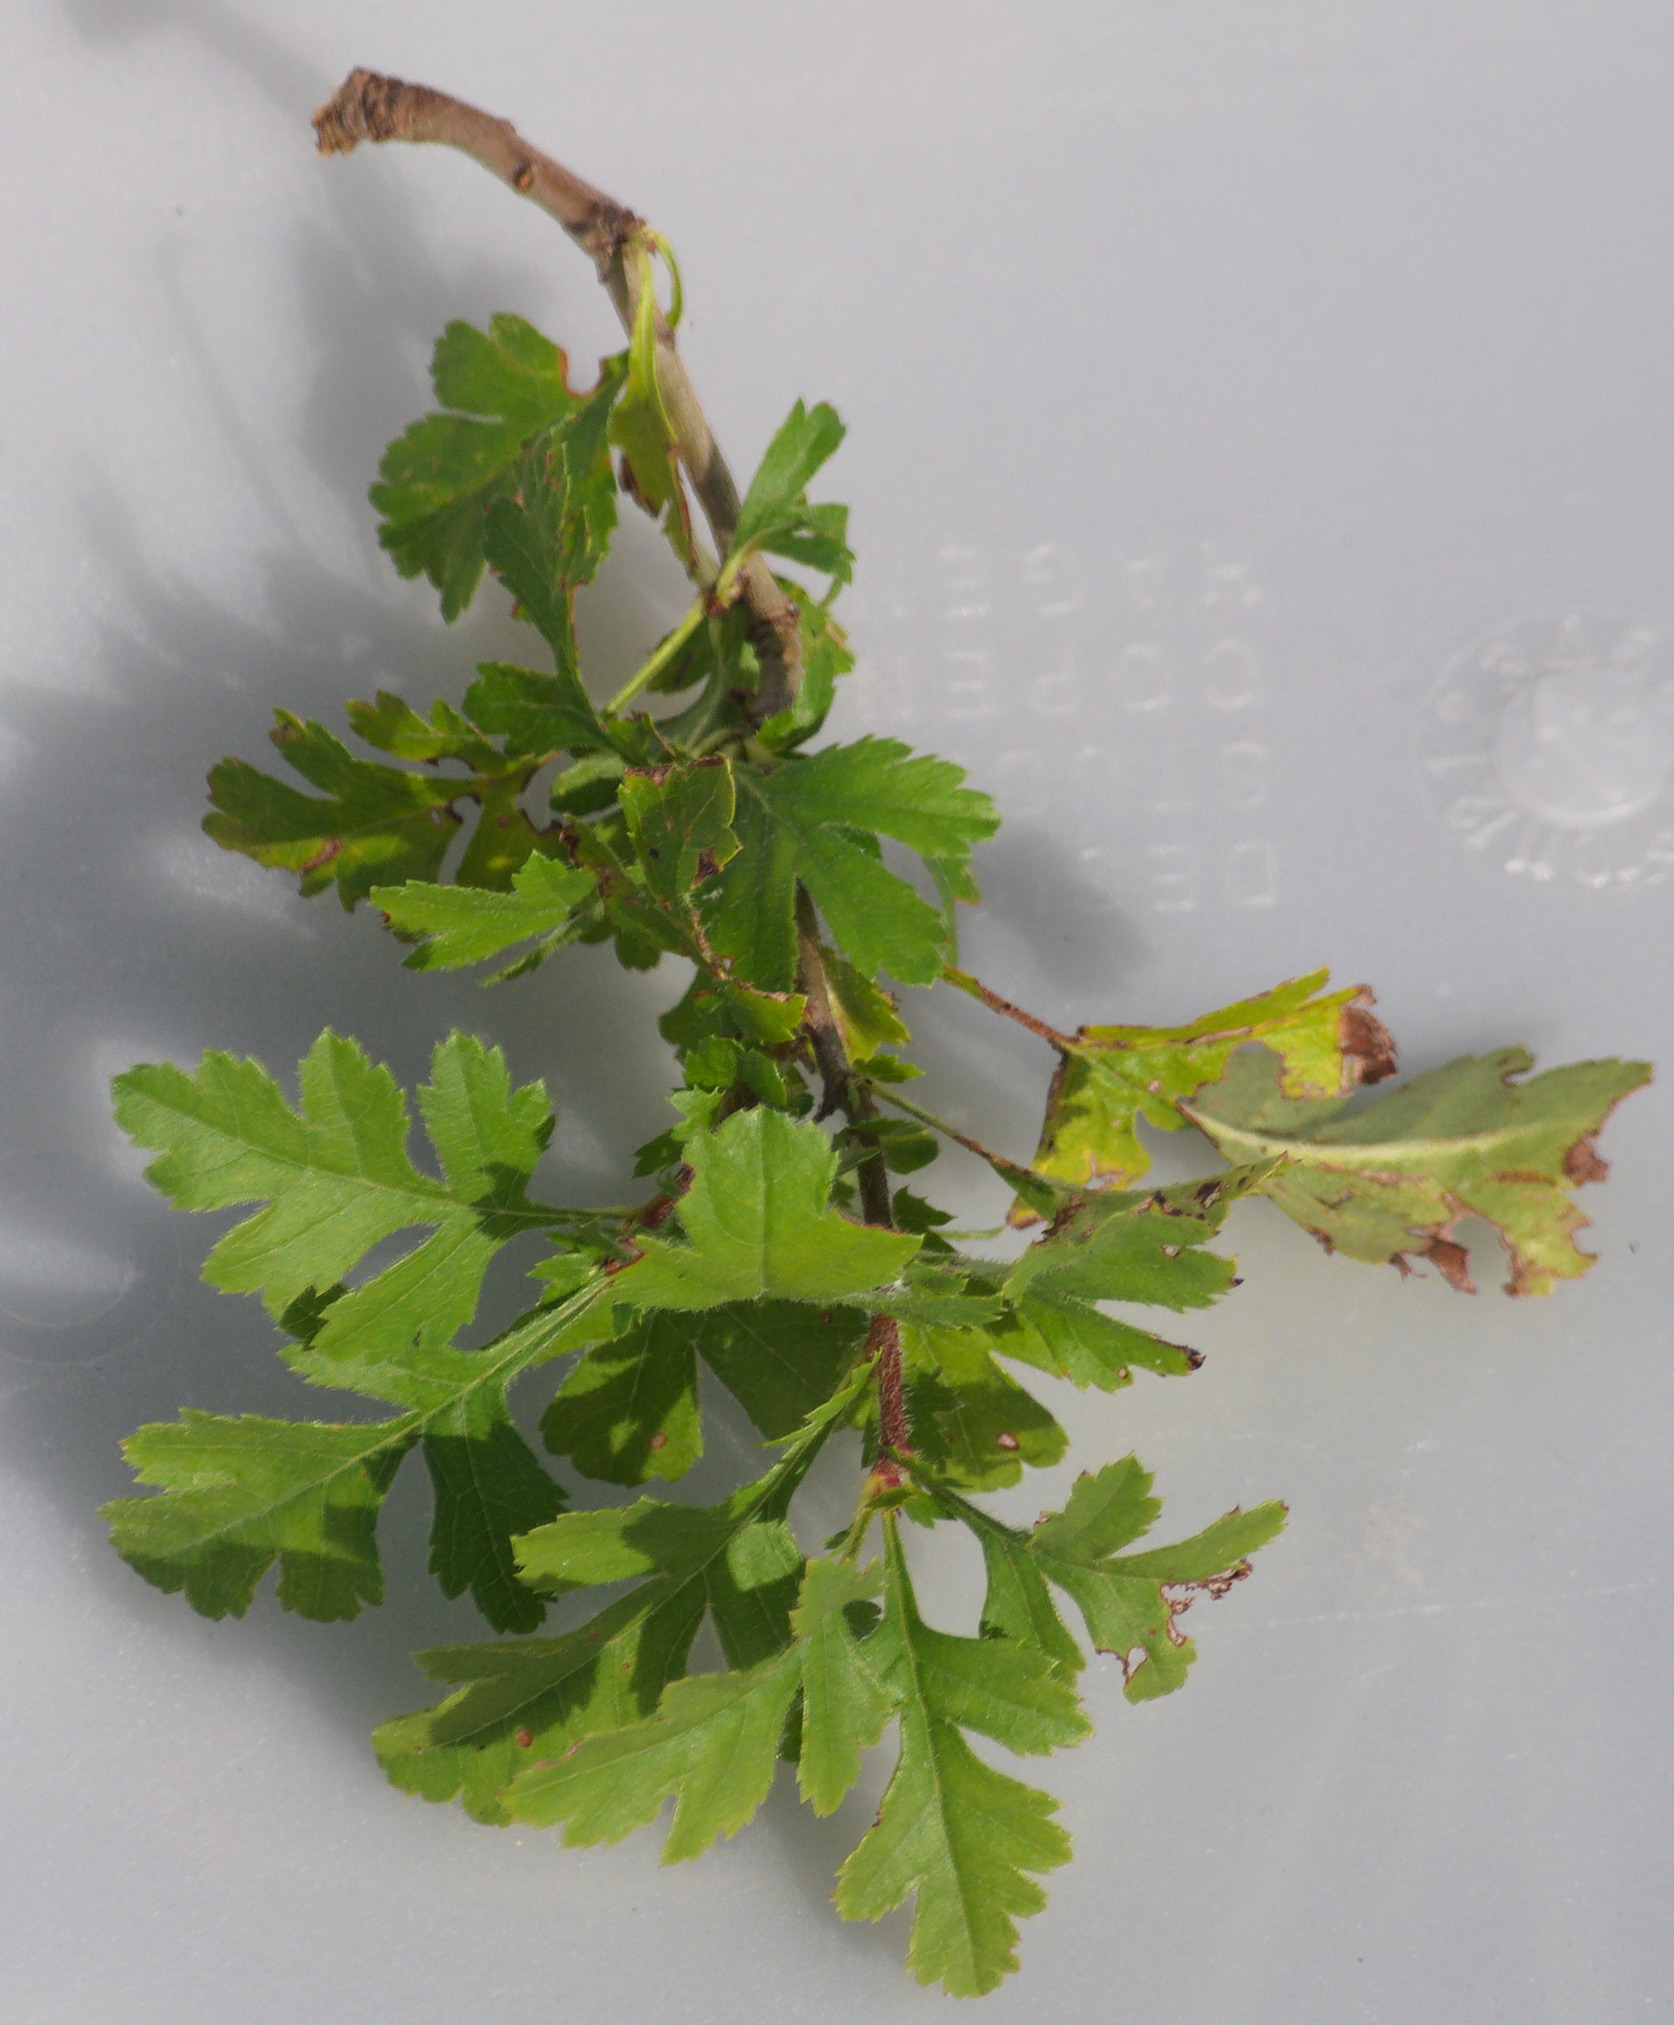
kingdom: Plantae
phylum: Tracheophyta
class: Magnoliopsida
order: Rosales
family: Rosaceae
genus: Crataegus
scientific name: Crataegus subsphaerica
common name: Engriflet hvidtjørn × koral-hvidtjørn
